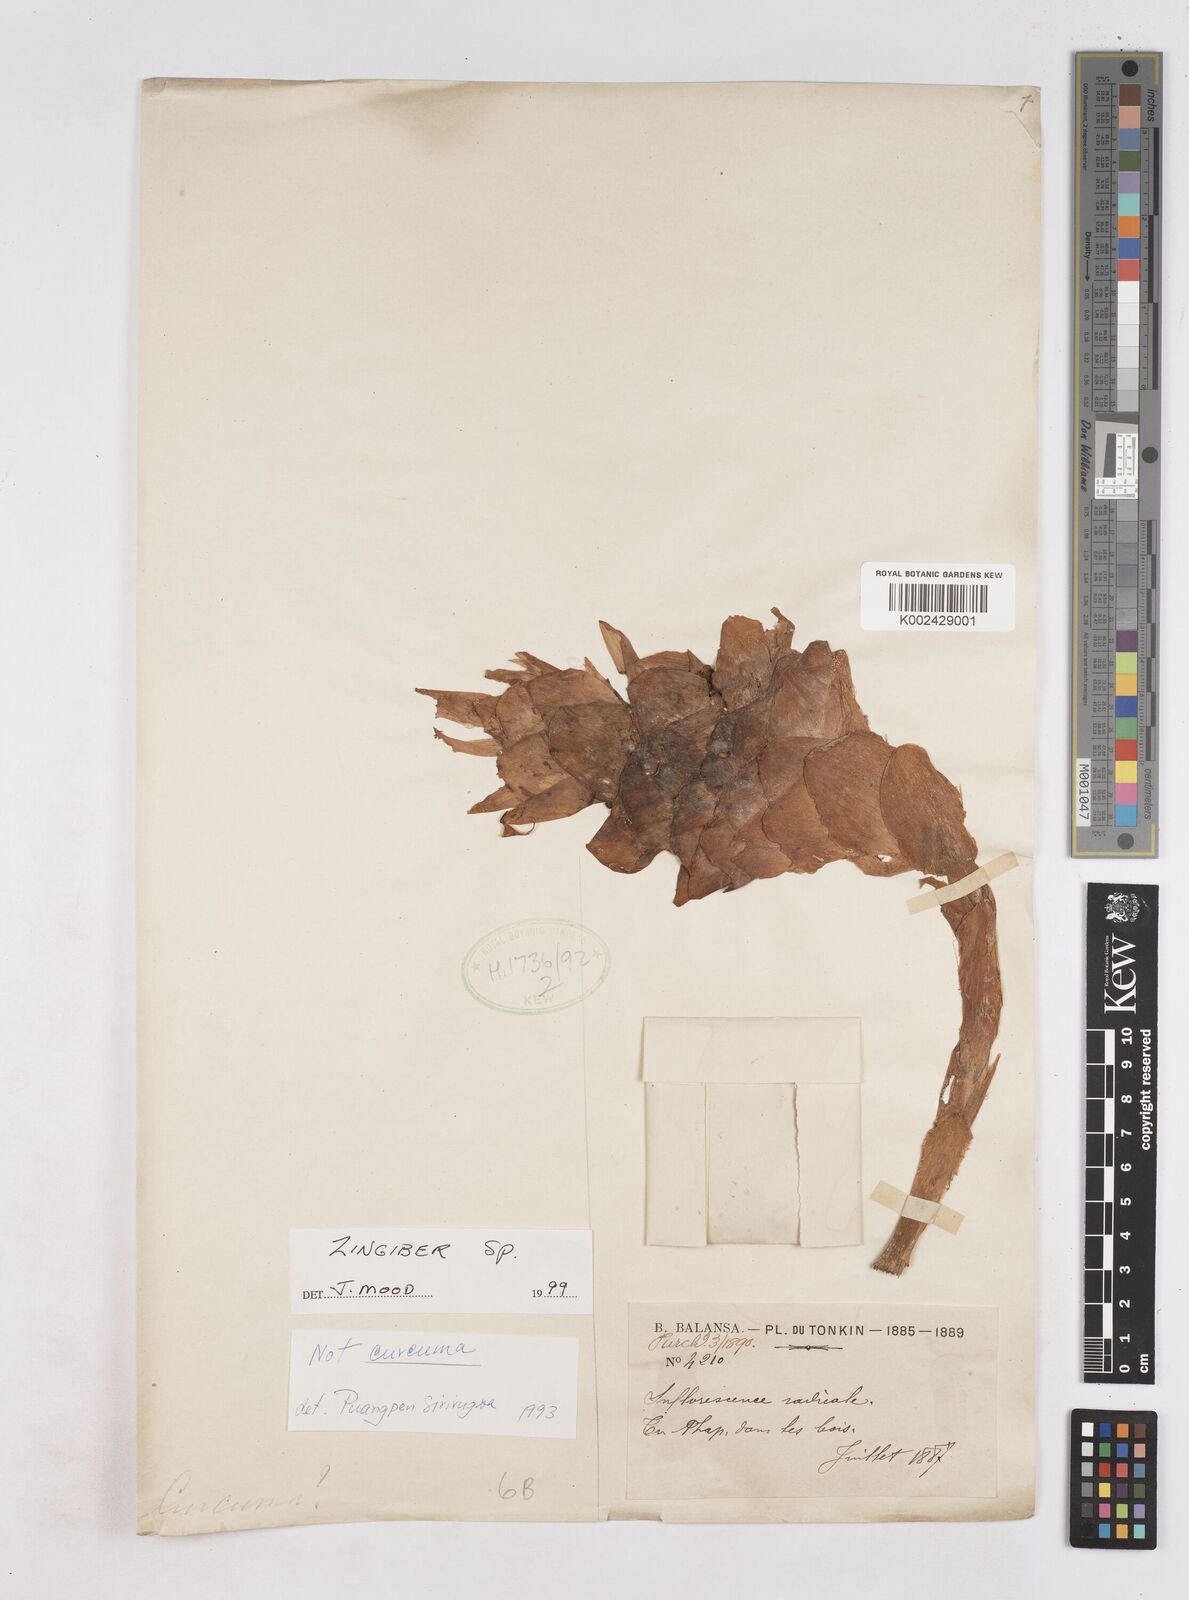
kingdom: Plantae
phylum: Tracheophyta
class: Liliopsida
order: Zingiberales
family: Zingiberaceae
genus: Zingiber
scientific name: Zingiber
